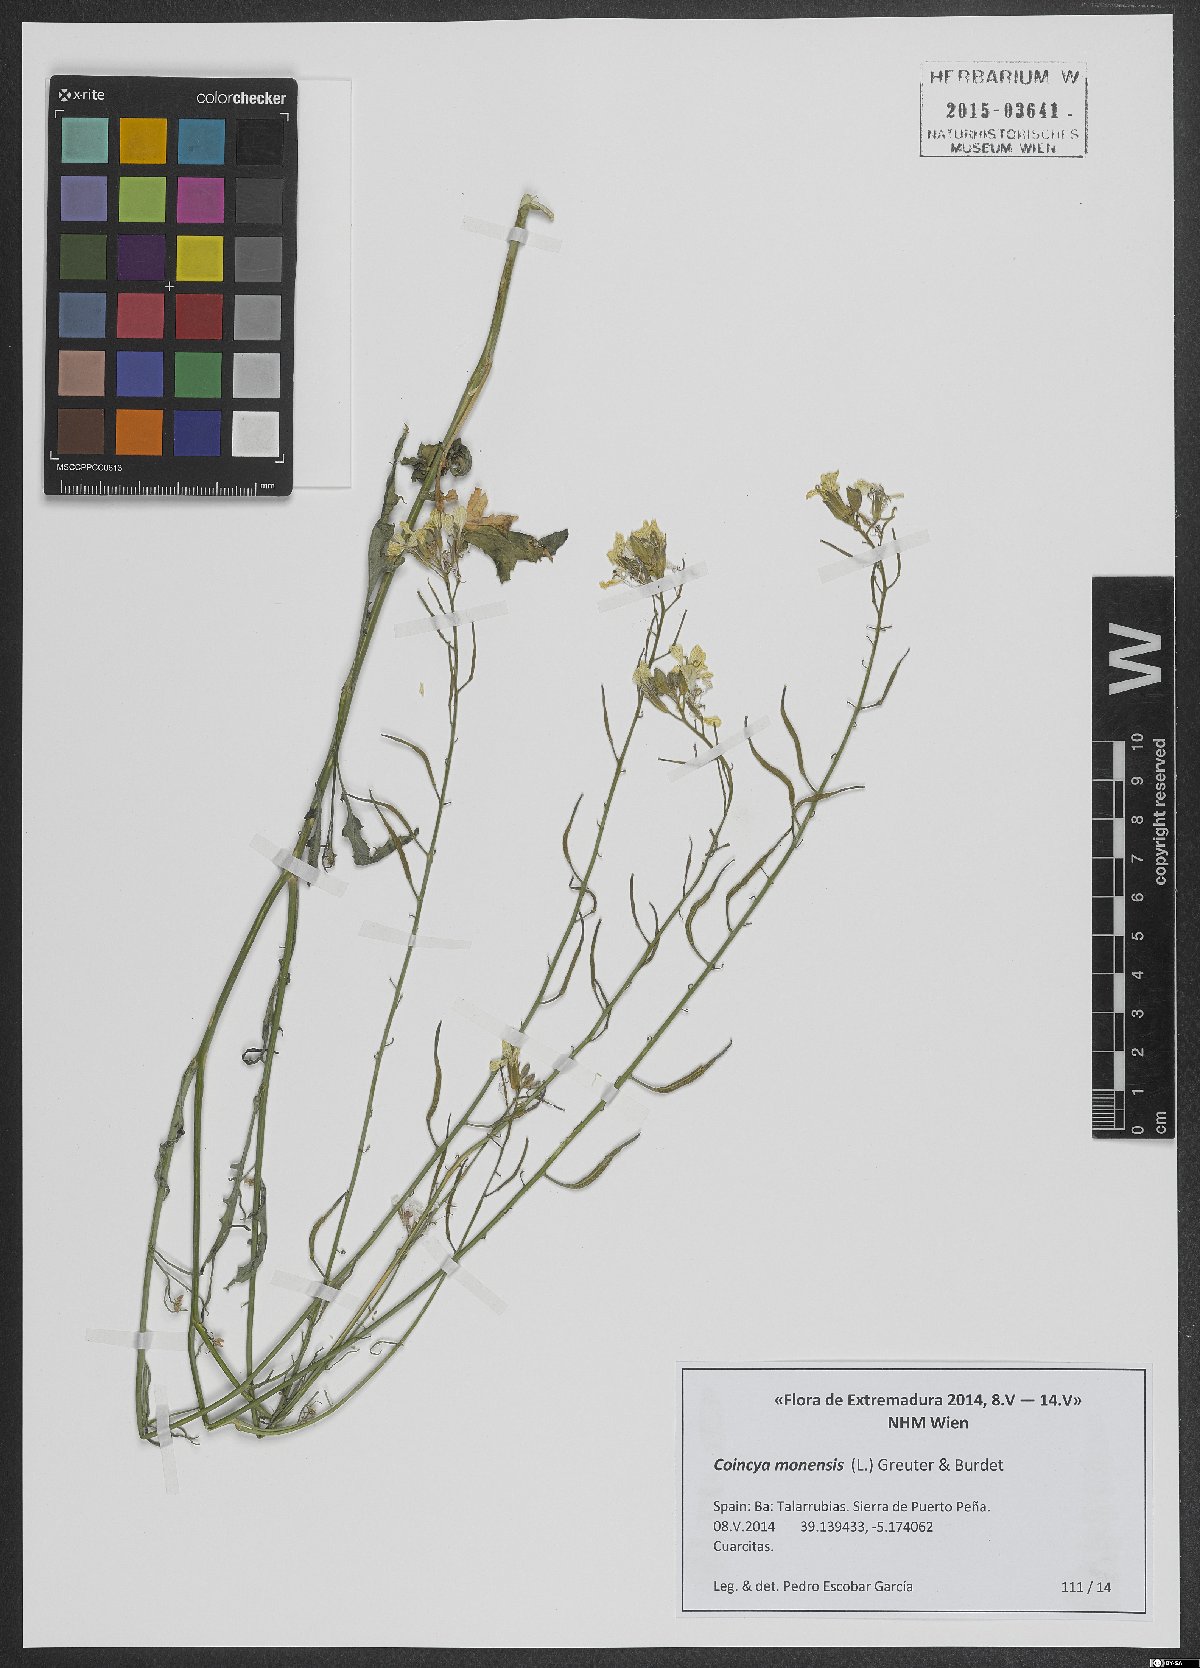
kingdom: Plantae
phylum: Tracheophyta
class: Magnoliopsida
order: Brassicales
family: Brassicaceae
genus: Coincya
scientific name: Coincya monensis
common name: Star-mustard
